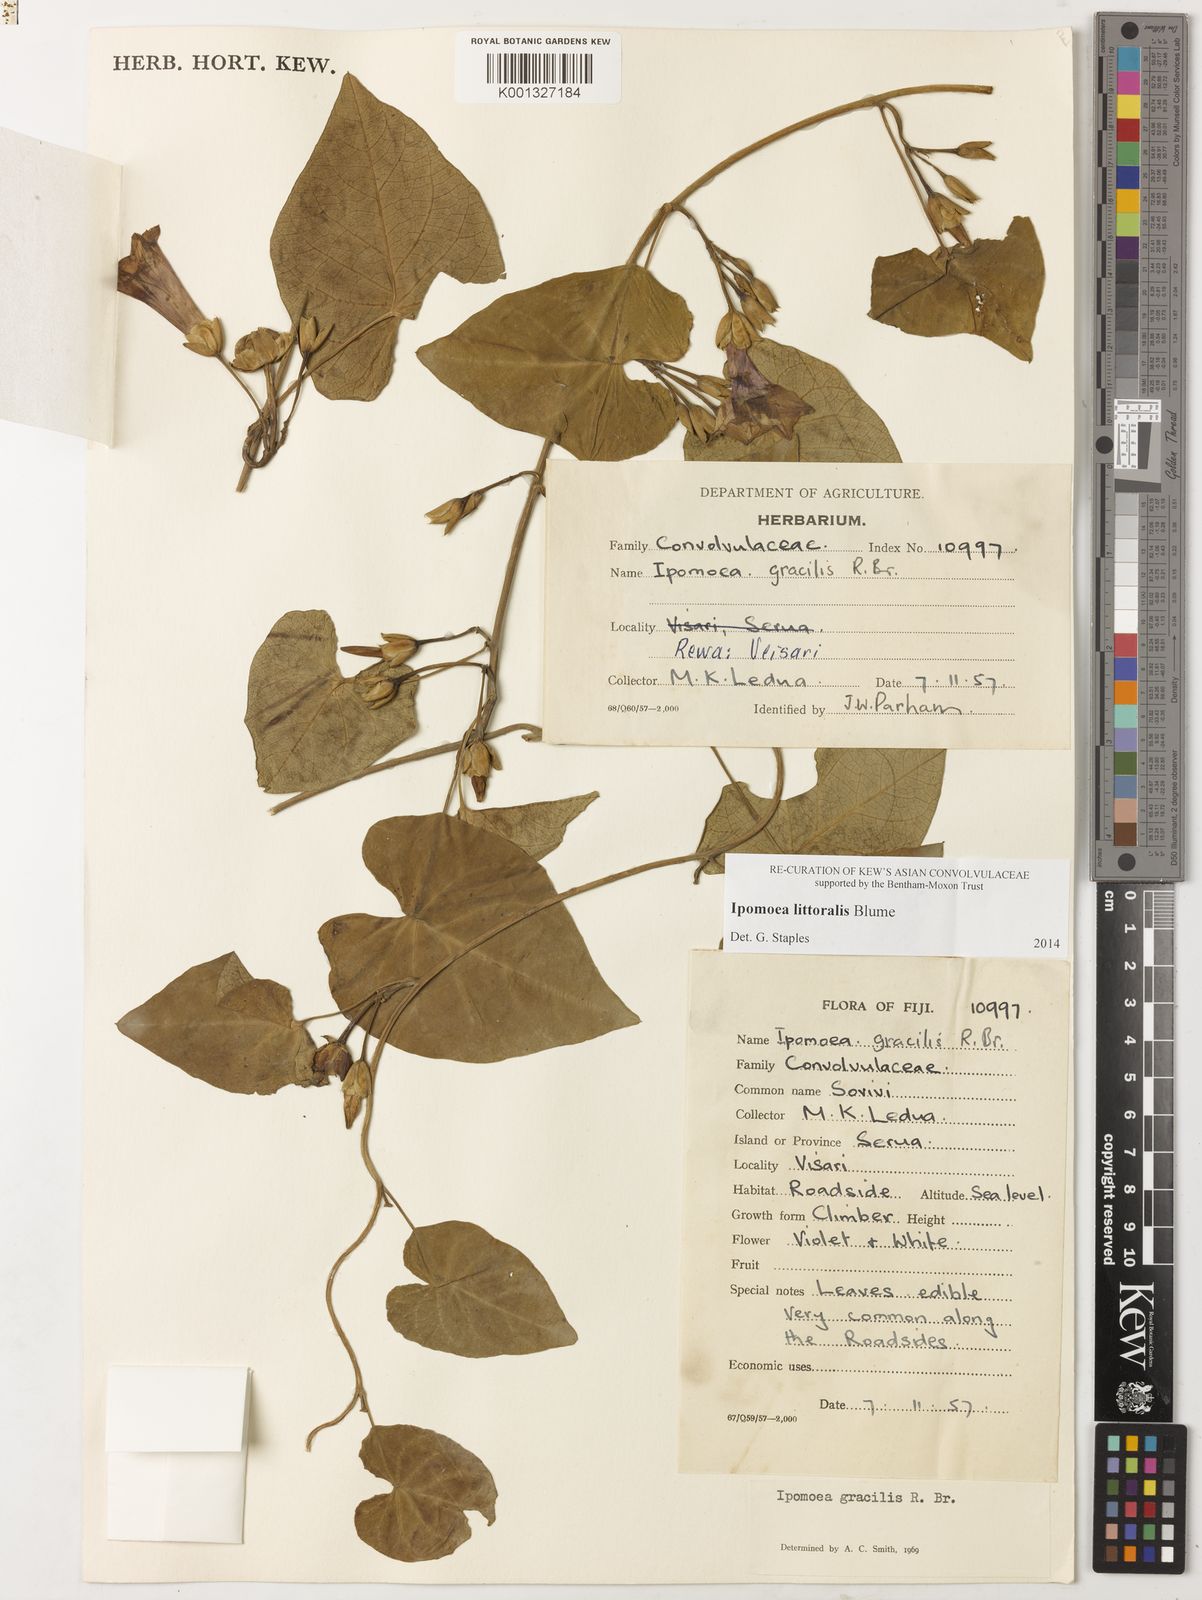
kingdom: Plantae
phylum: Tracheophyta
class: Magnoliopsida
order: Solanales
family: Convolvulaceae
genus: Ipomoea
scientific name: Ipomoea littoralis
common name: Coastal morning glory
